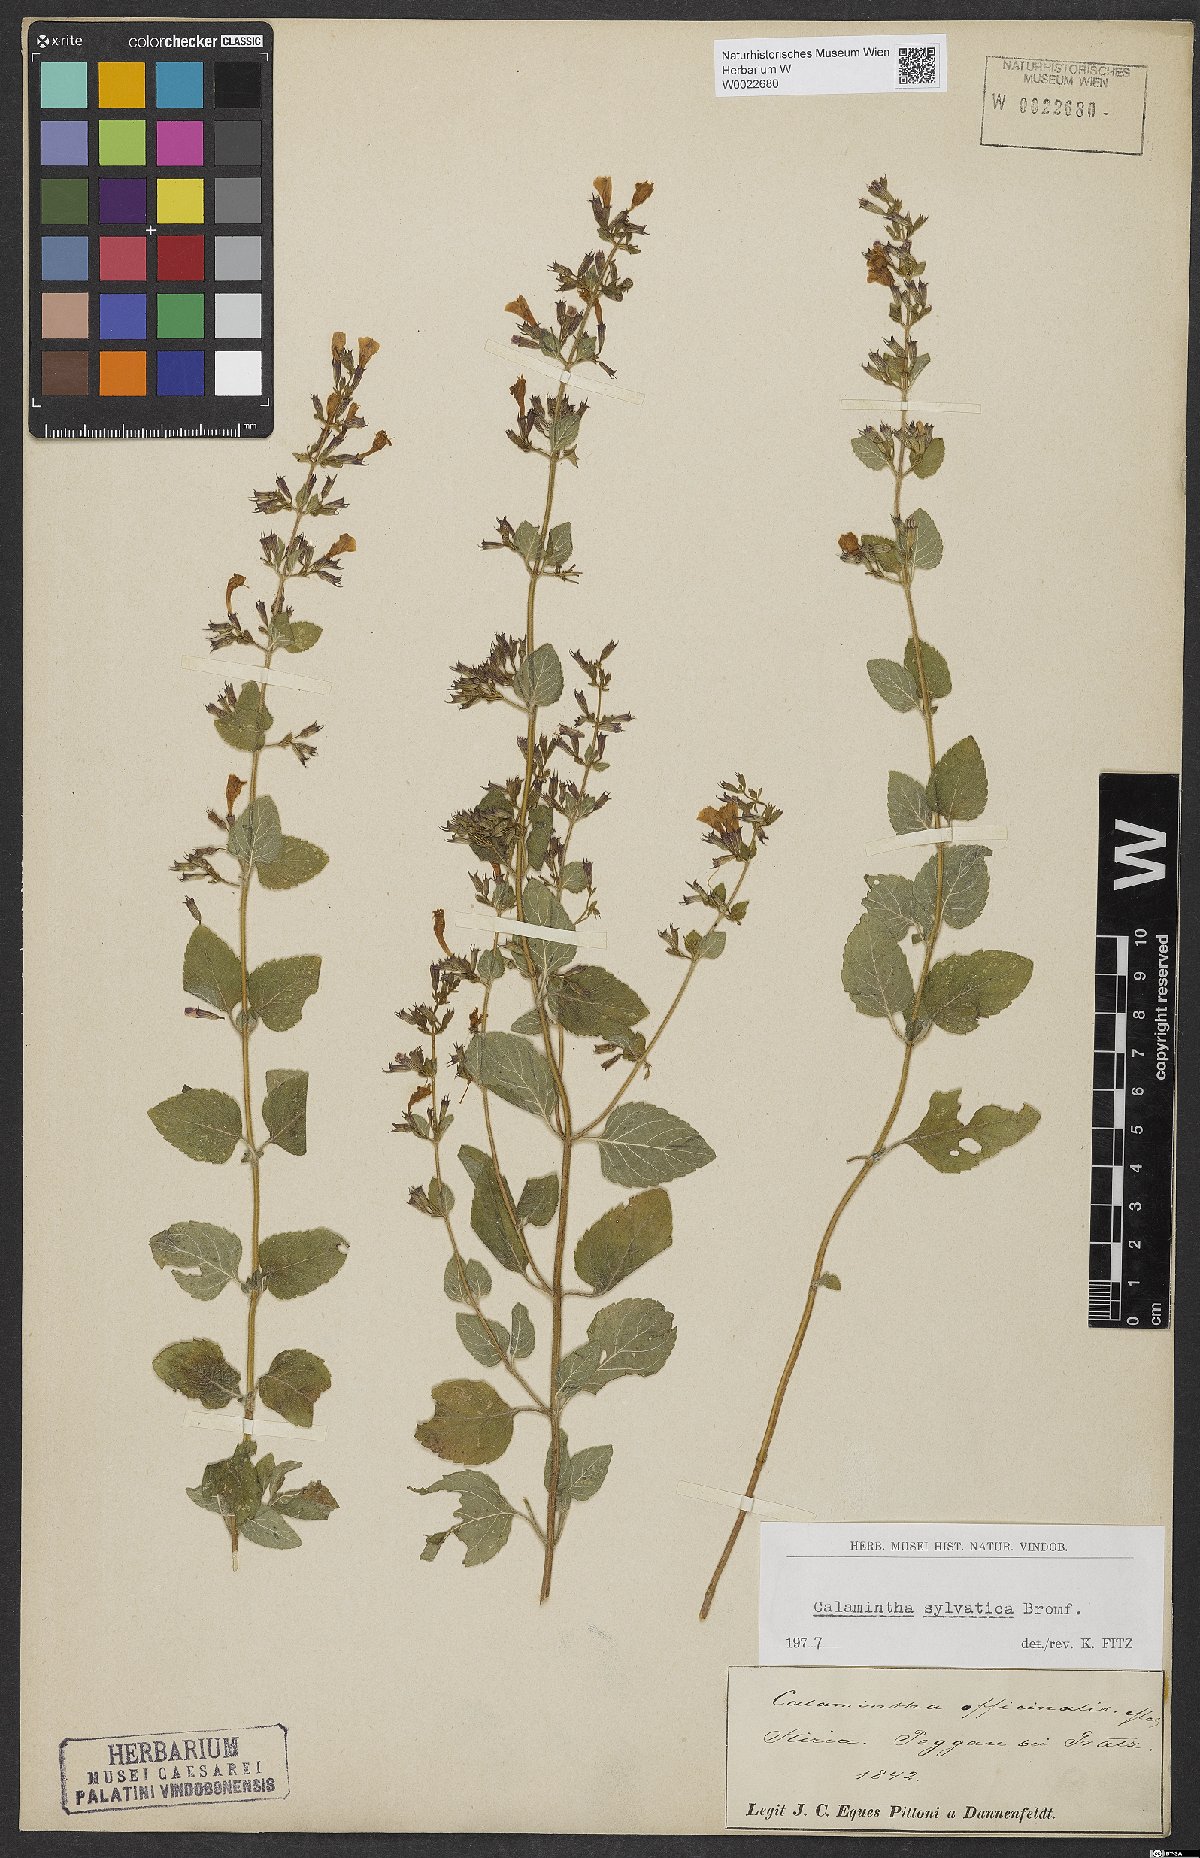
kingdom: Plantae
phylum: Tracheophyta
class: Magnoliopsida
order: Lamiales
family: Lamiaceae
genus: Clinopodium
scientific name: Clinopodium menthifolium
